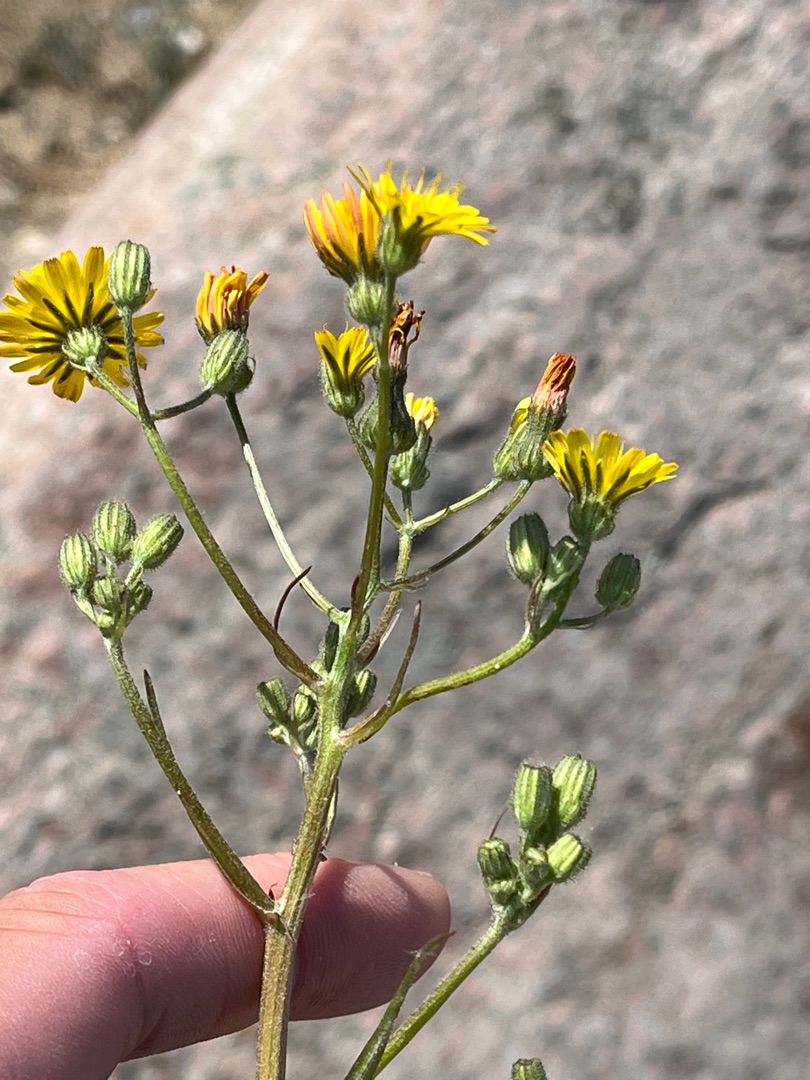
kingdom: Plantae
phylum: Tracheophyta
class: Magnoliopsida
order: Asterales
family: Asteraceae
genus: Crepis
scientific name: Crepis capillaris
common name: Grøn høgeskæg
